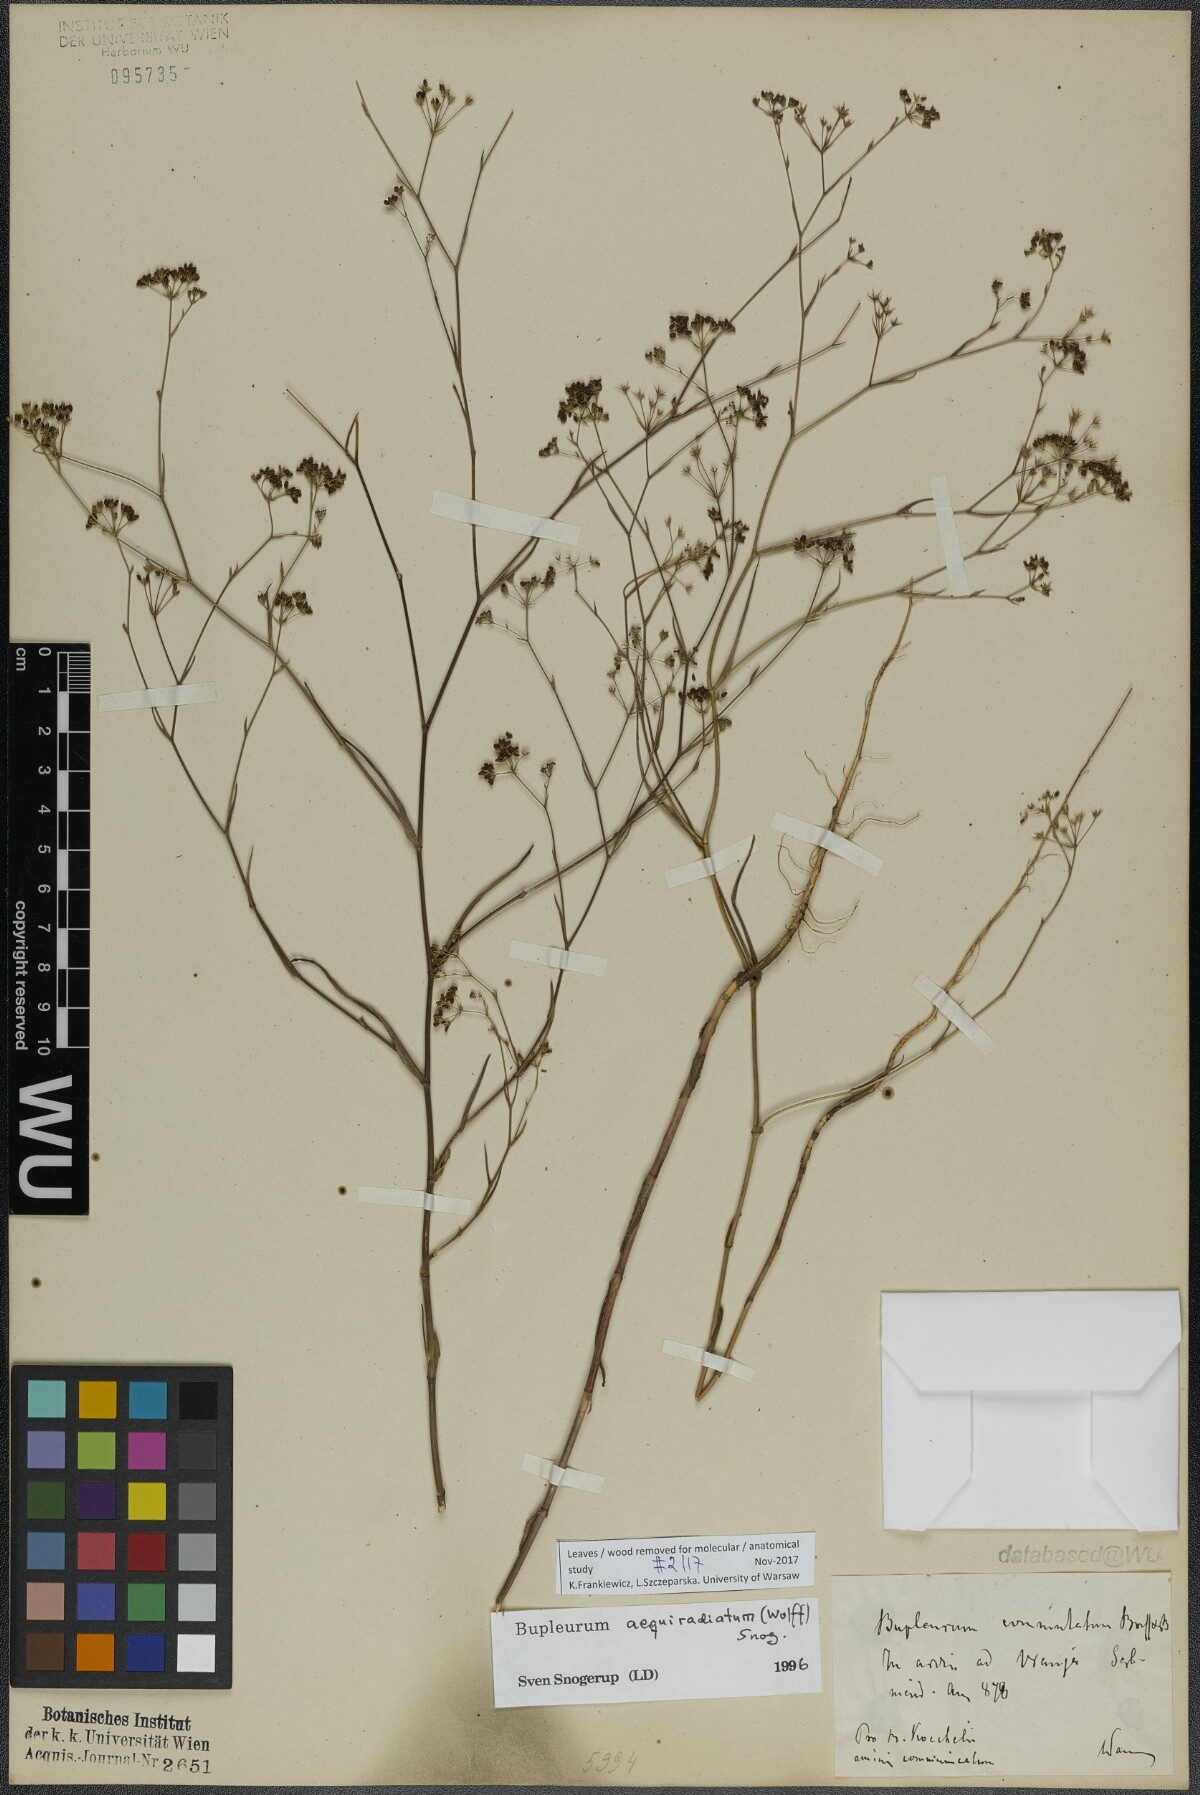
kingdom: Plantae
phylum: Tracheophyta
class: Magnoliopsida
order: Apiales
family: Apiaceae
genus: Bupleurum
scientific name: Bupleurum aequiradiatum
